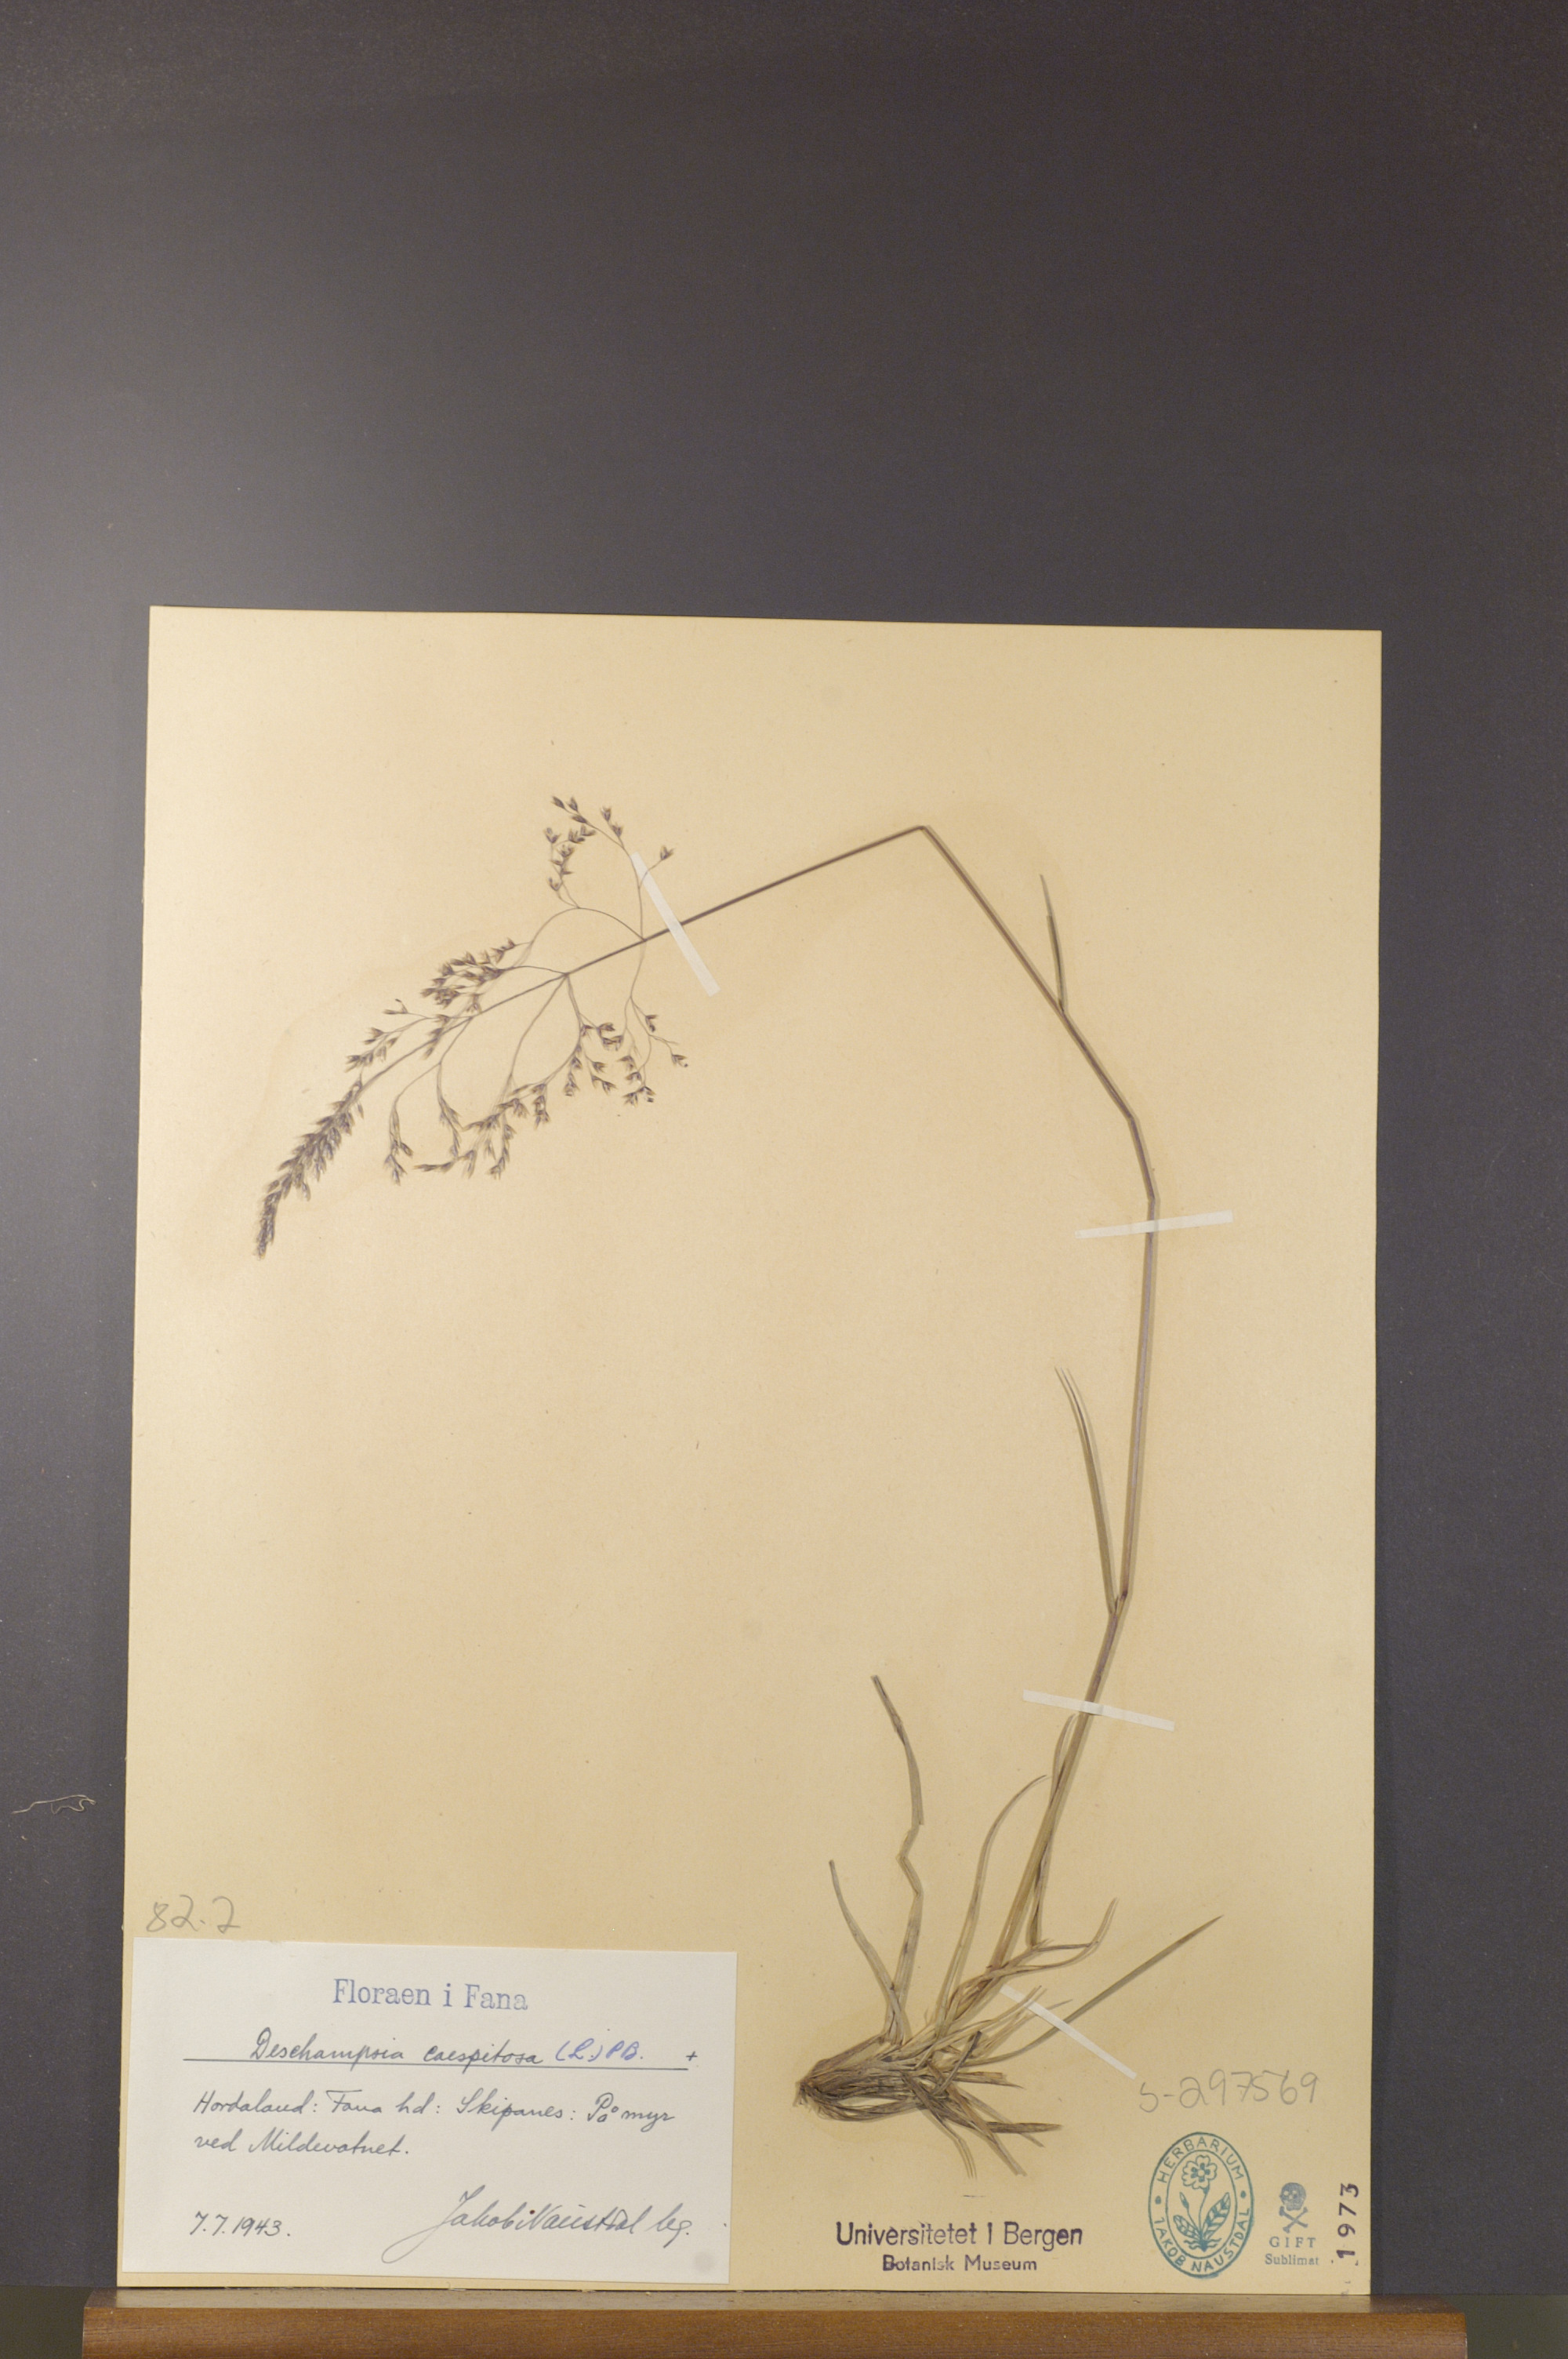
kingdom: Plantae
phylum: Tracheophyta
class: Liliopsida
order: Poales
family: Poaceae
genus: Deschampsia
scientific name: Deschampsia cespitosa
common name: Tufted hair-grass
